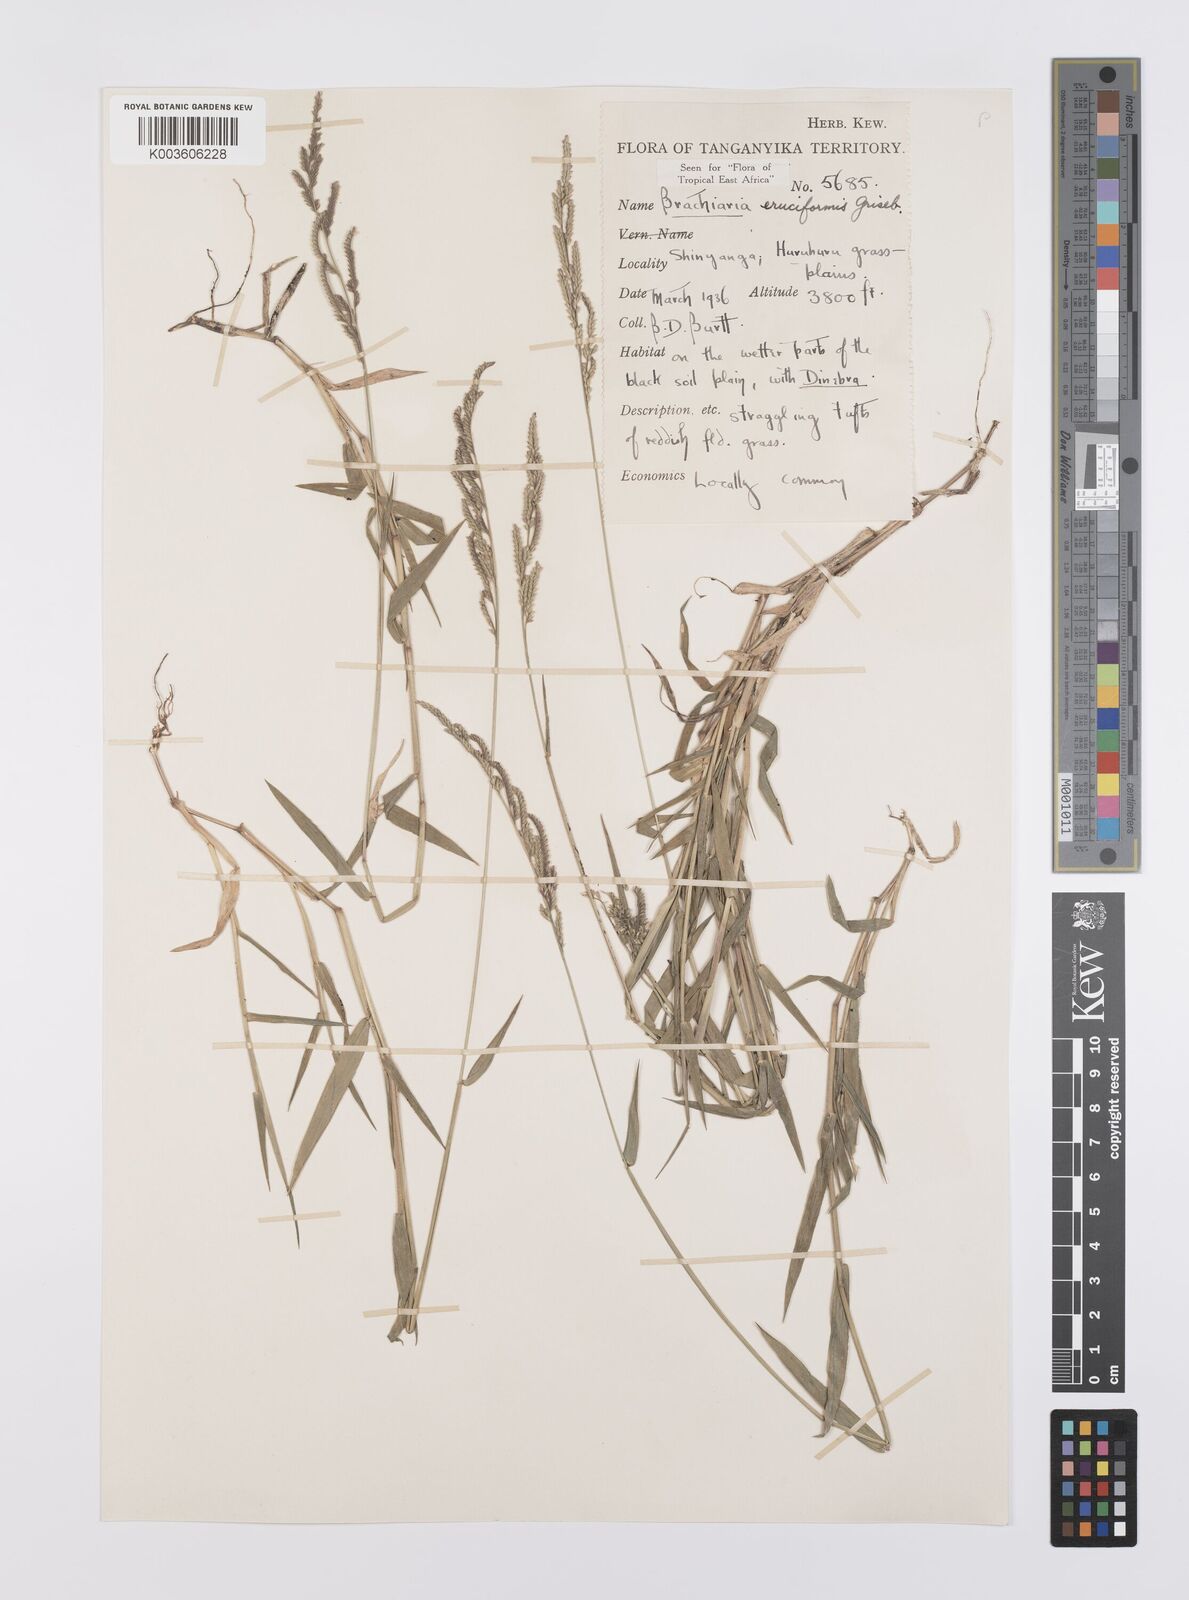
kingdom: Plantae
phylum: Tracheophyta
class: Liliopsida
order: Poales
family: Poaceae
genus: Moorochloa
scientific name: Moorochloa eruciformis
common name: Sweet signalgrass
